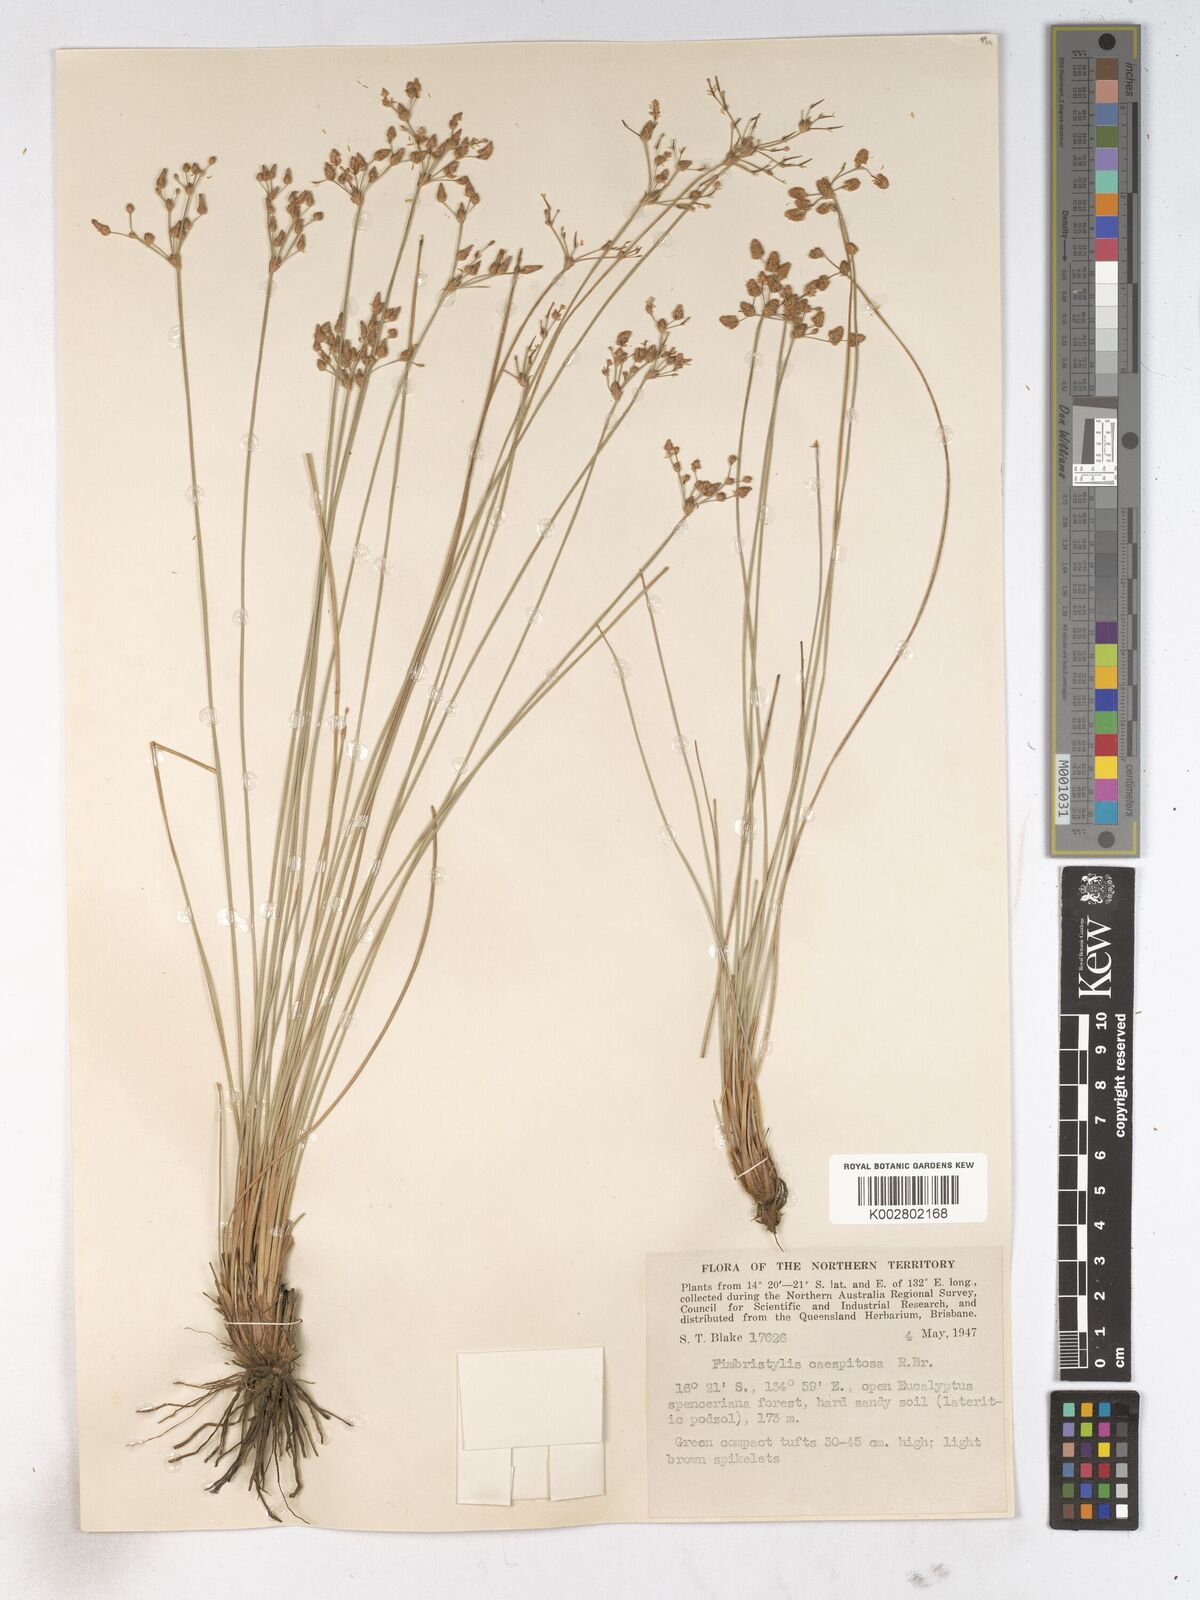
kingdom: Plantae
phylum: Tracheophyta
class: Liliopsida
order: Poales
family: Cyperaceae
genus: Fimbristylis
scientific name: Fimbristylis caespitosa
